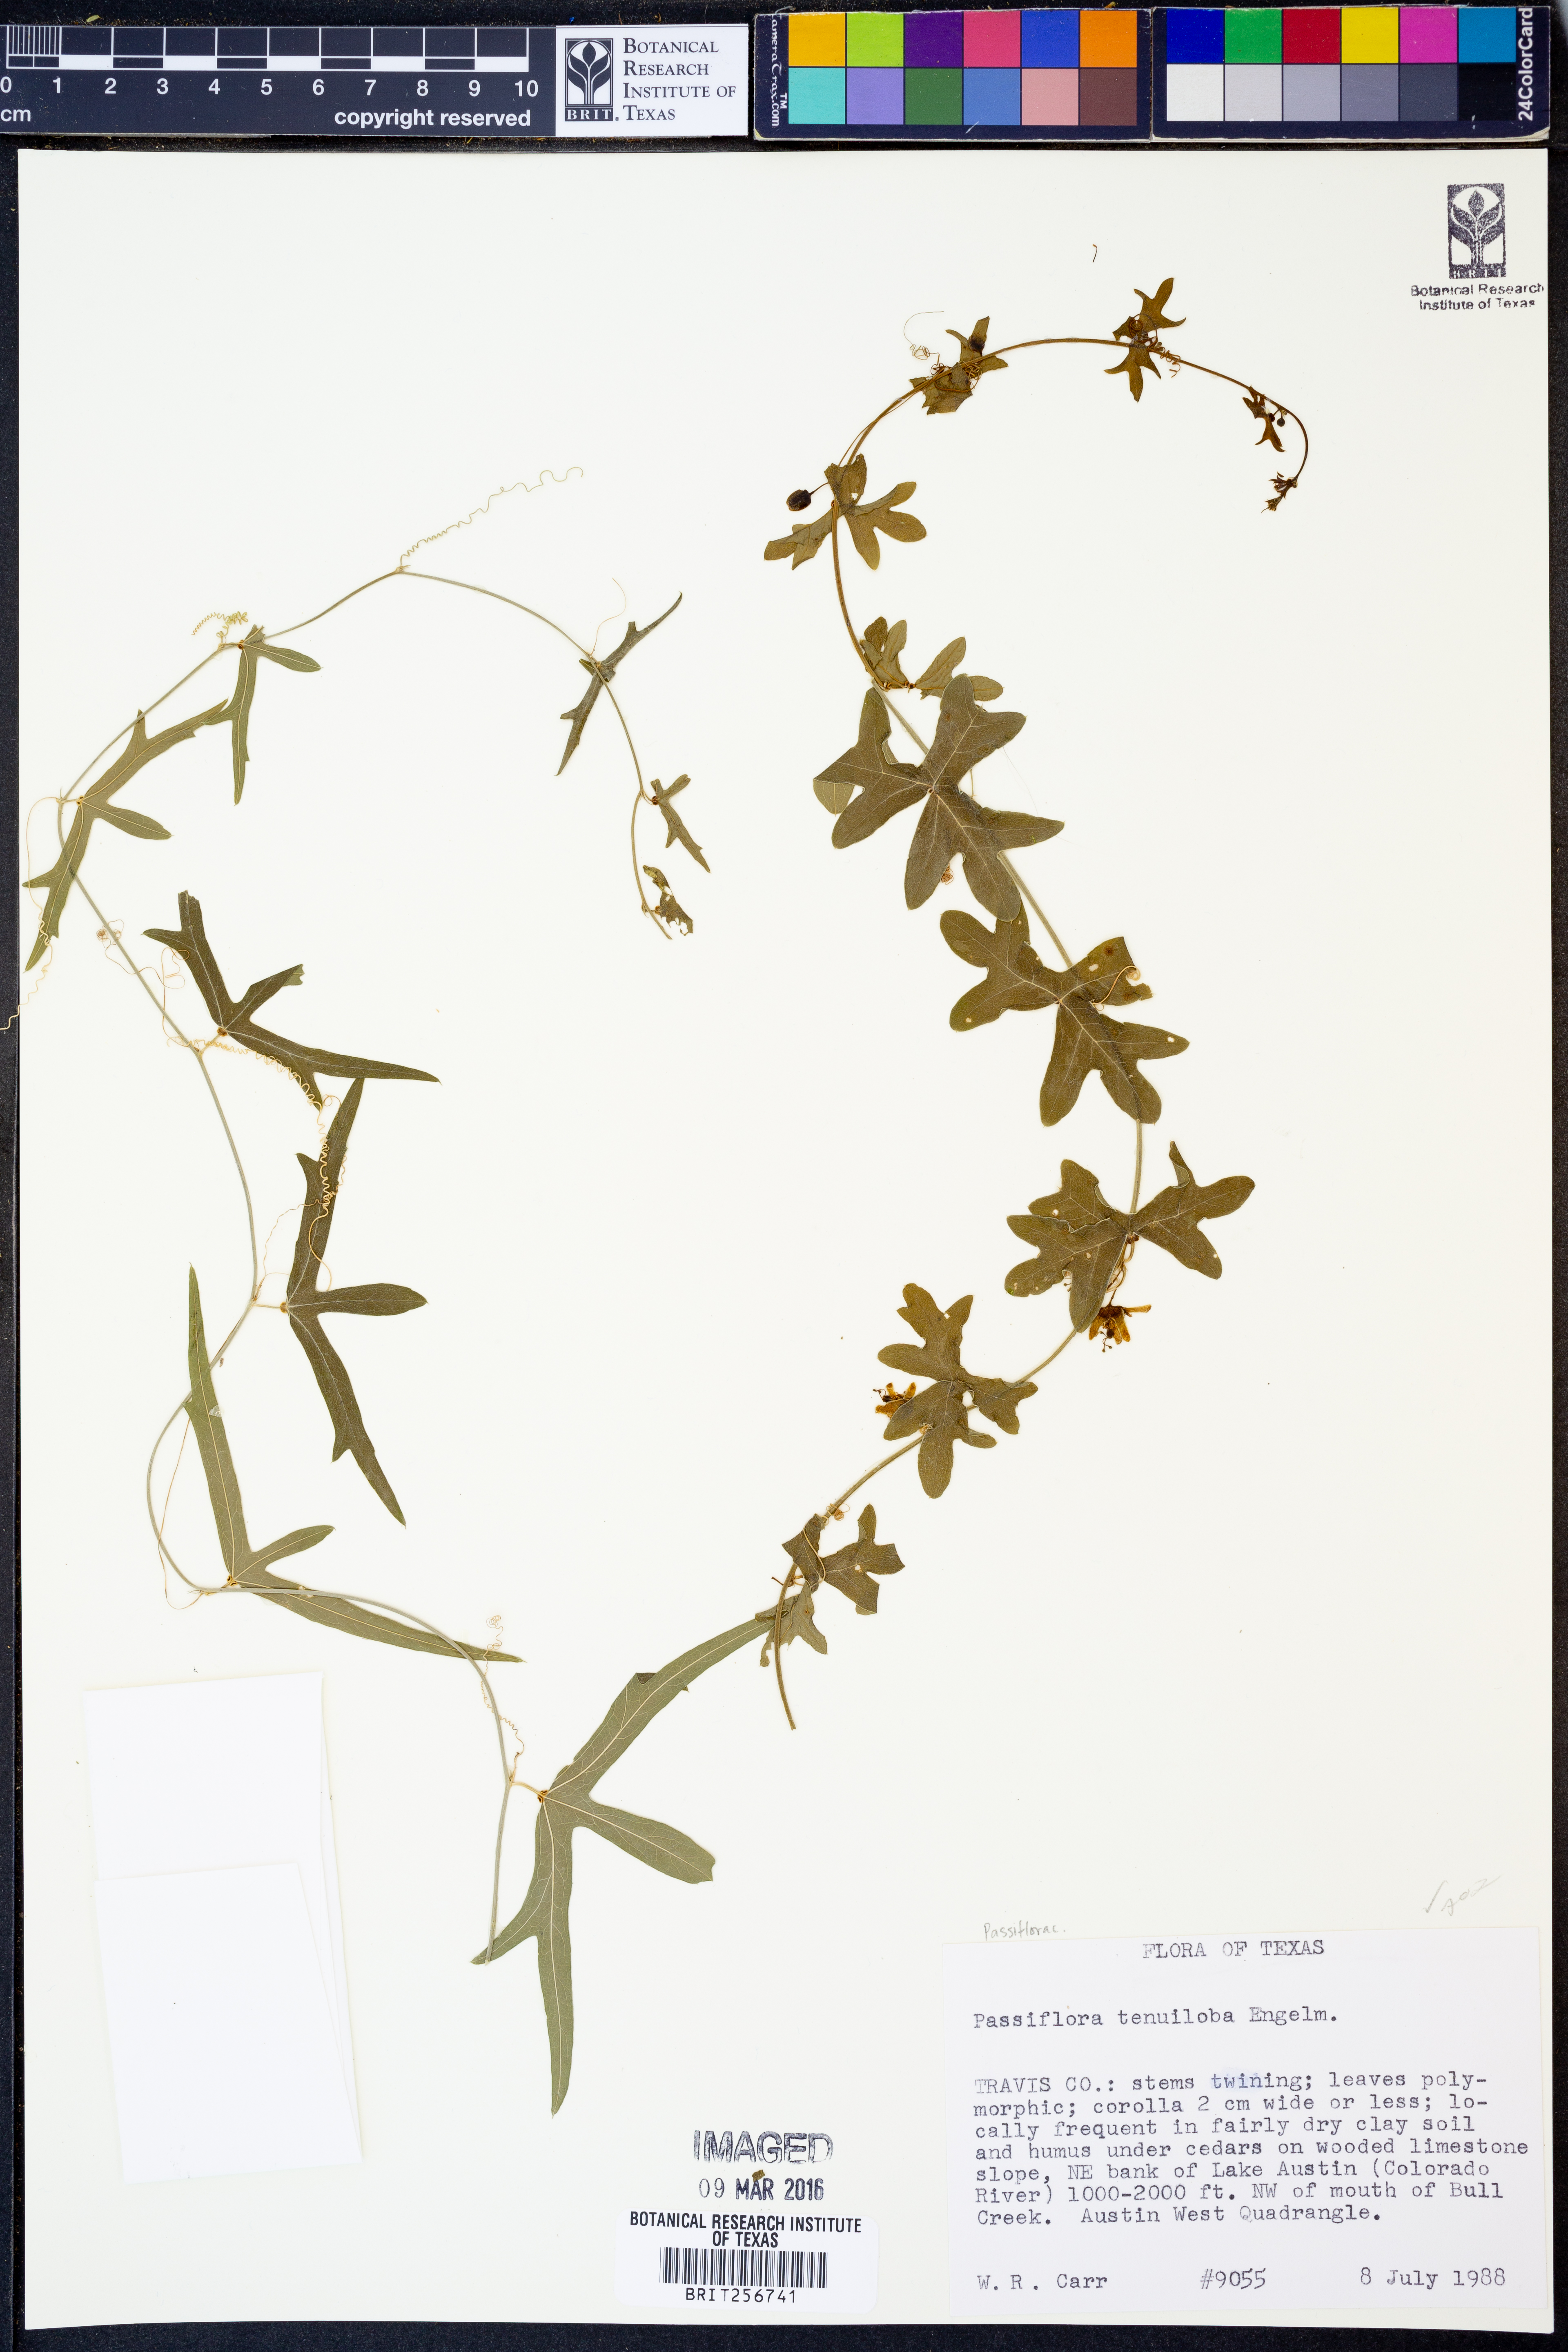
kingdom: Plantae
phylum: Tracheophyta
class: Magnoliopsida
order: Malpighiales
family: Passifloraceae
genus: Passiflora
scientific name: Passiflora tenuiloba
